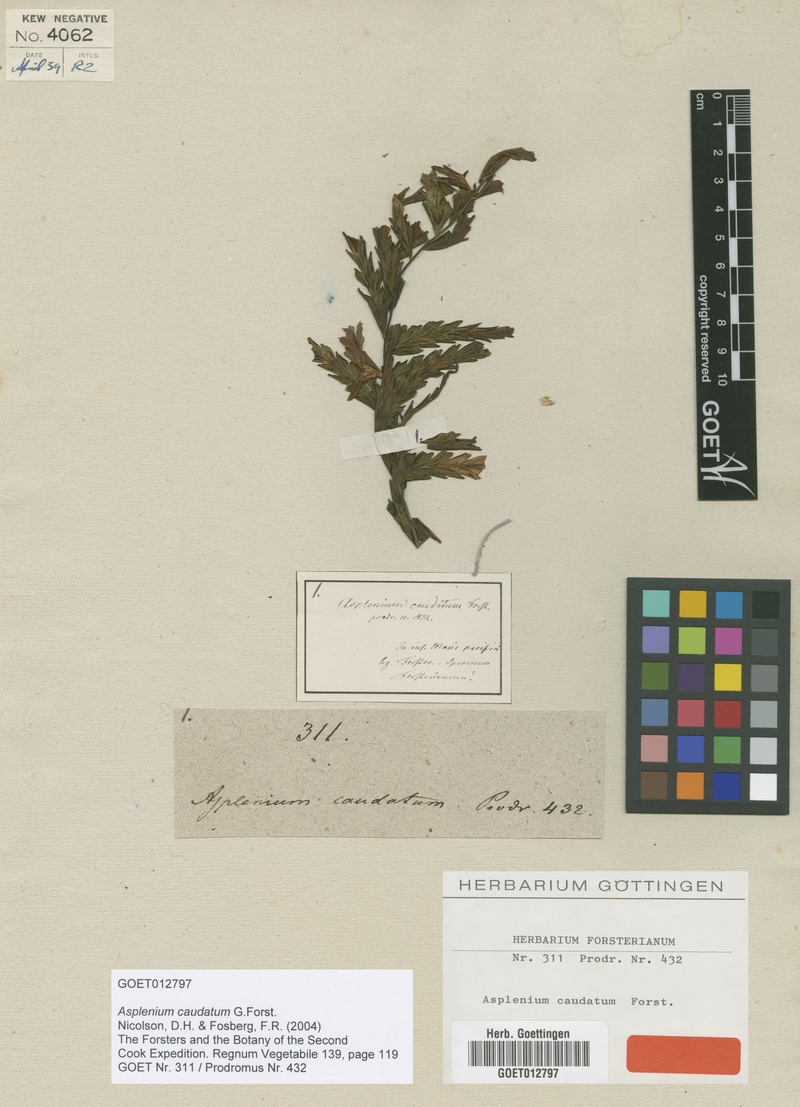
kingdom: Plantae
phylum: Tracheophyta
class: Polypodiopsida
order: Polypodiales
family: Aspleniaceae
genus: Asplenium
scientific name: Asplenium caudatum
